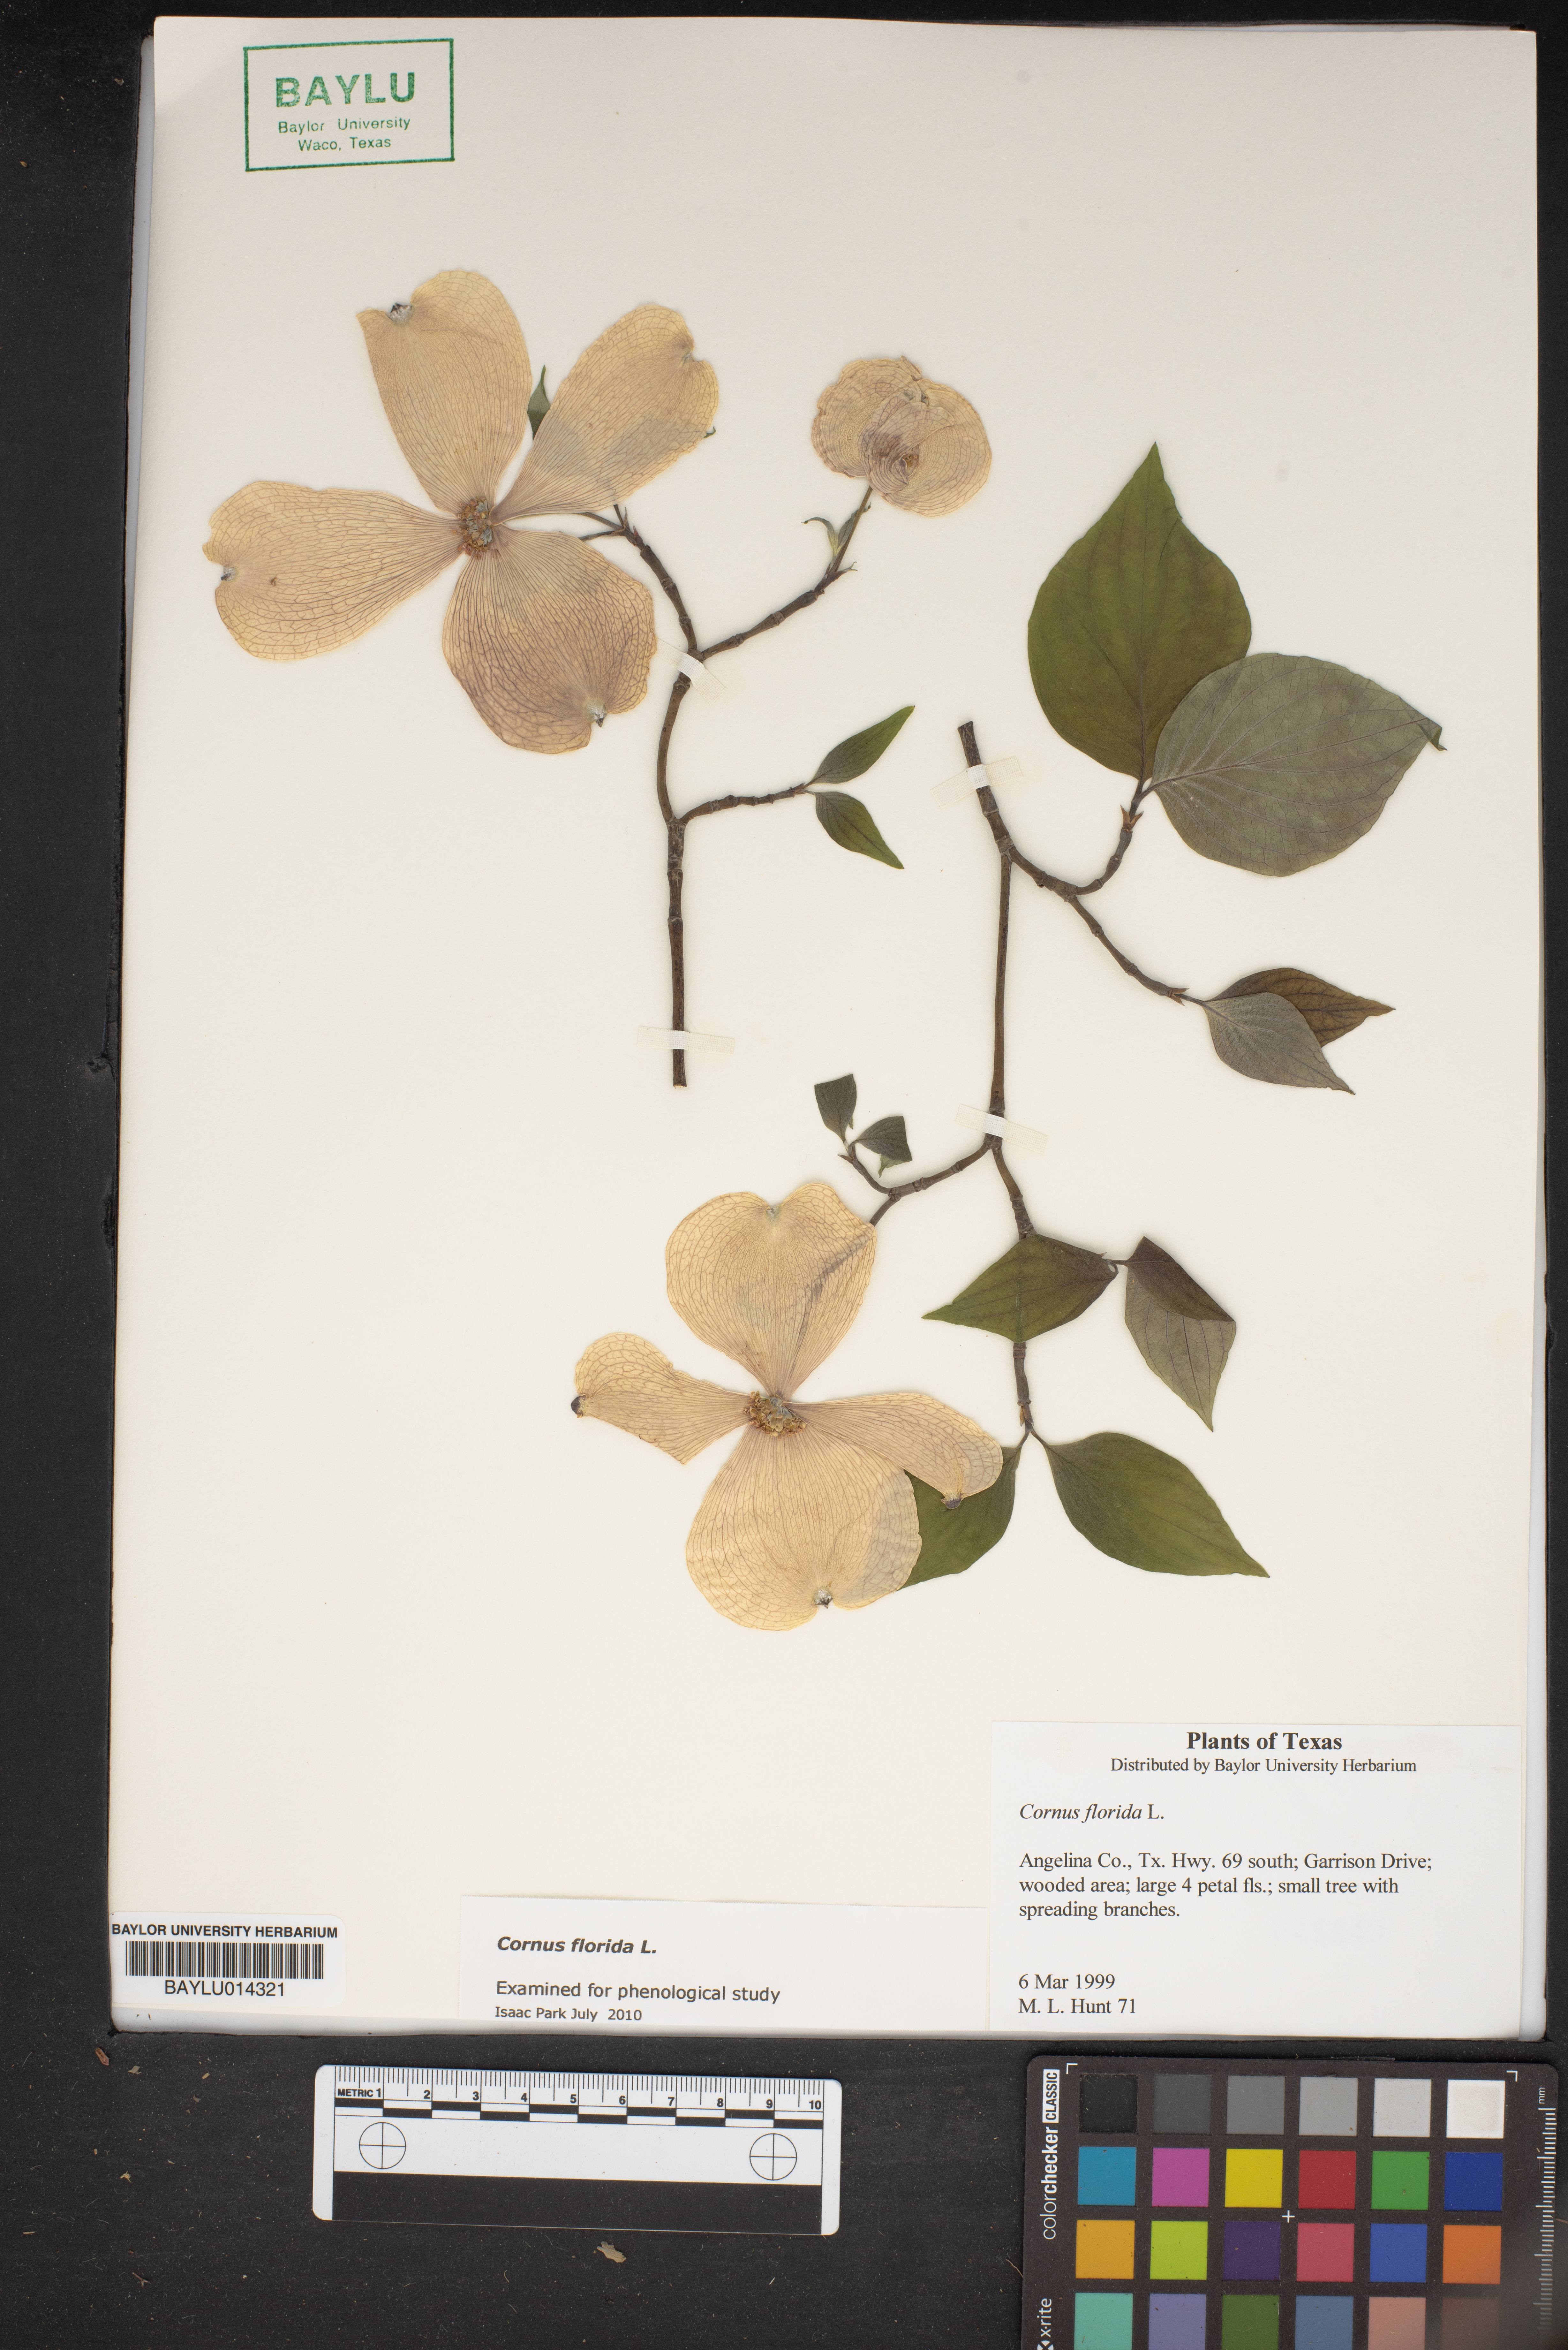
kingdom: Plantae
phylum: Tracheophyta
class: Magnoliopsida
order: Cornales
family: Cornaceae
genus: Cornus
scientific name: Cornus florida
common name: Flowering dogwood
